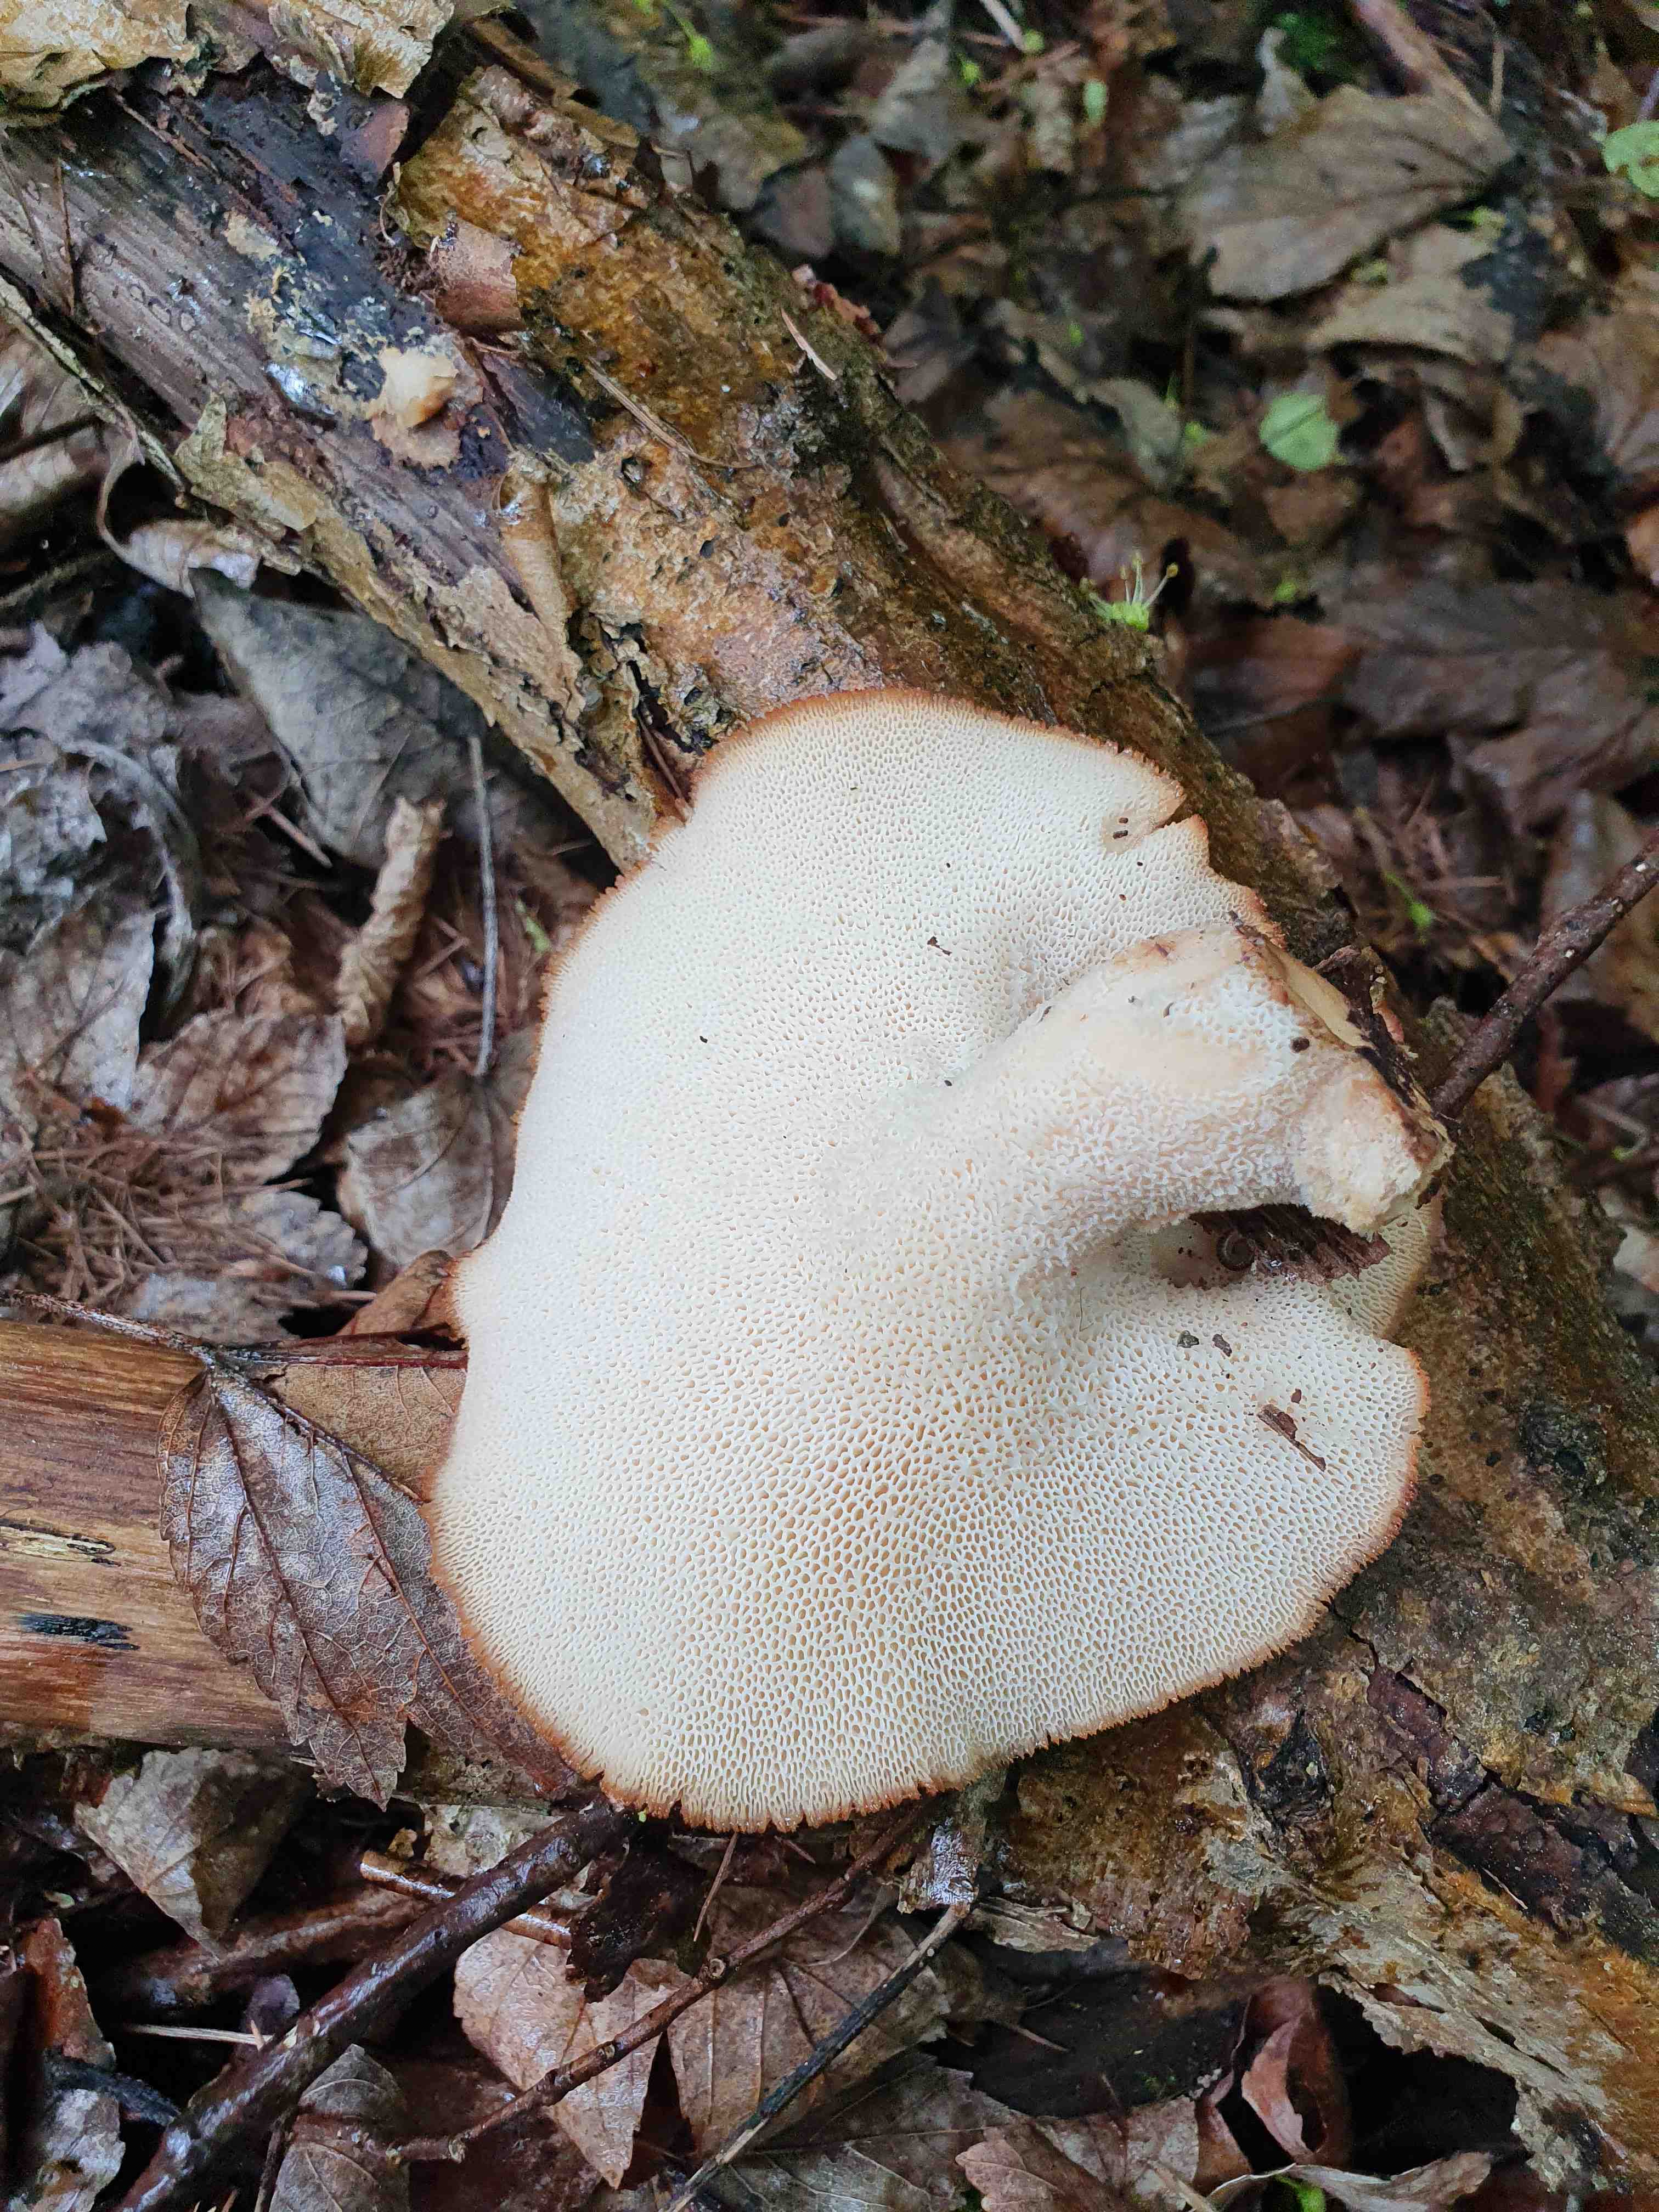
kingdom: Fungi
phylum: Basidiomycota
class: Agaricomycetes
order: Polyporales
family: Polyporaceae
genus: Polyporus
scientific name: Polyporus tuberaster
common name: knoldet stilkporesvamp
